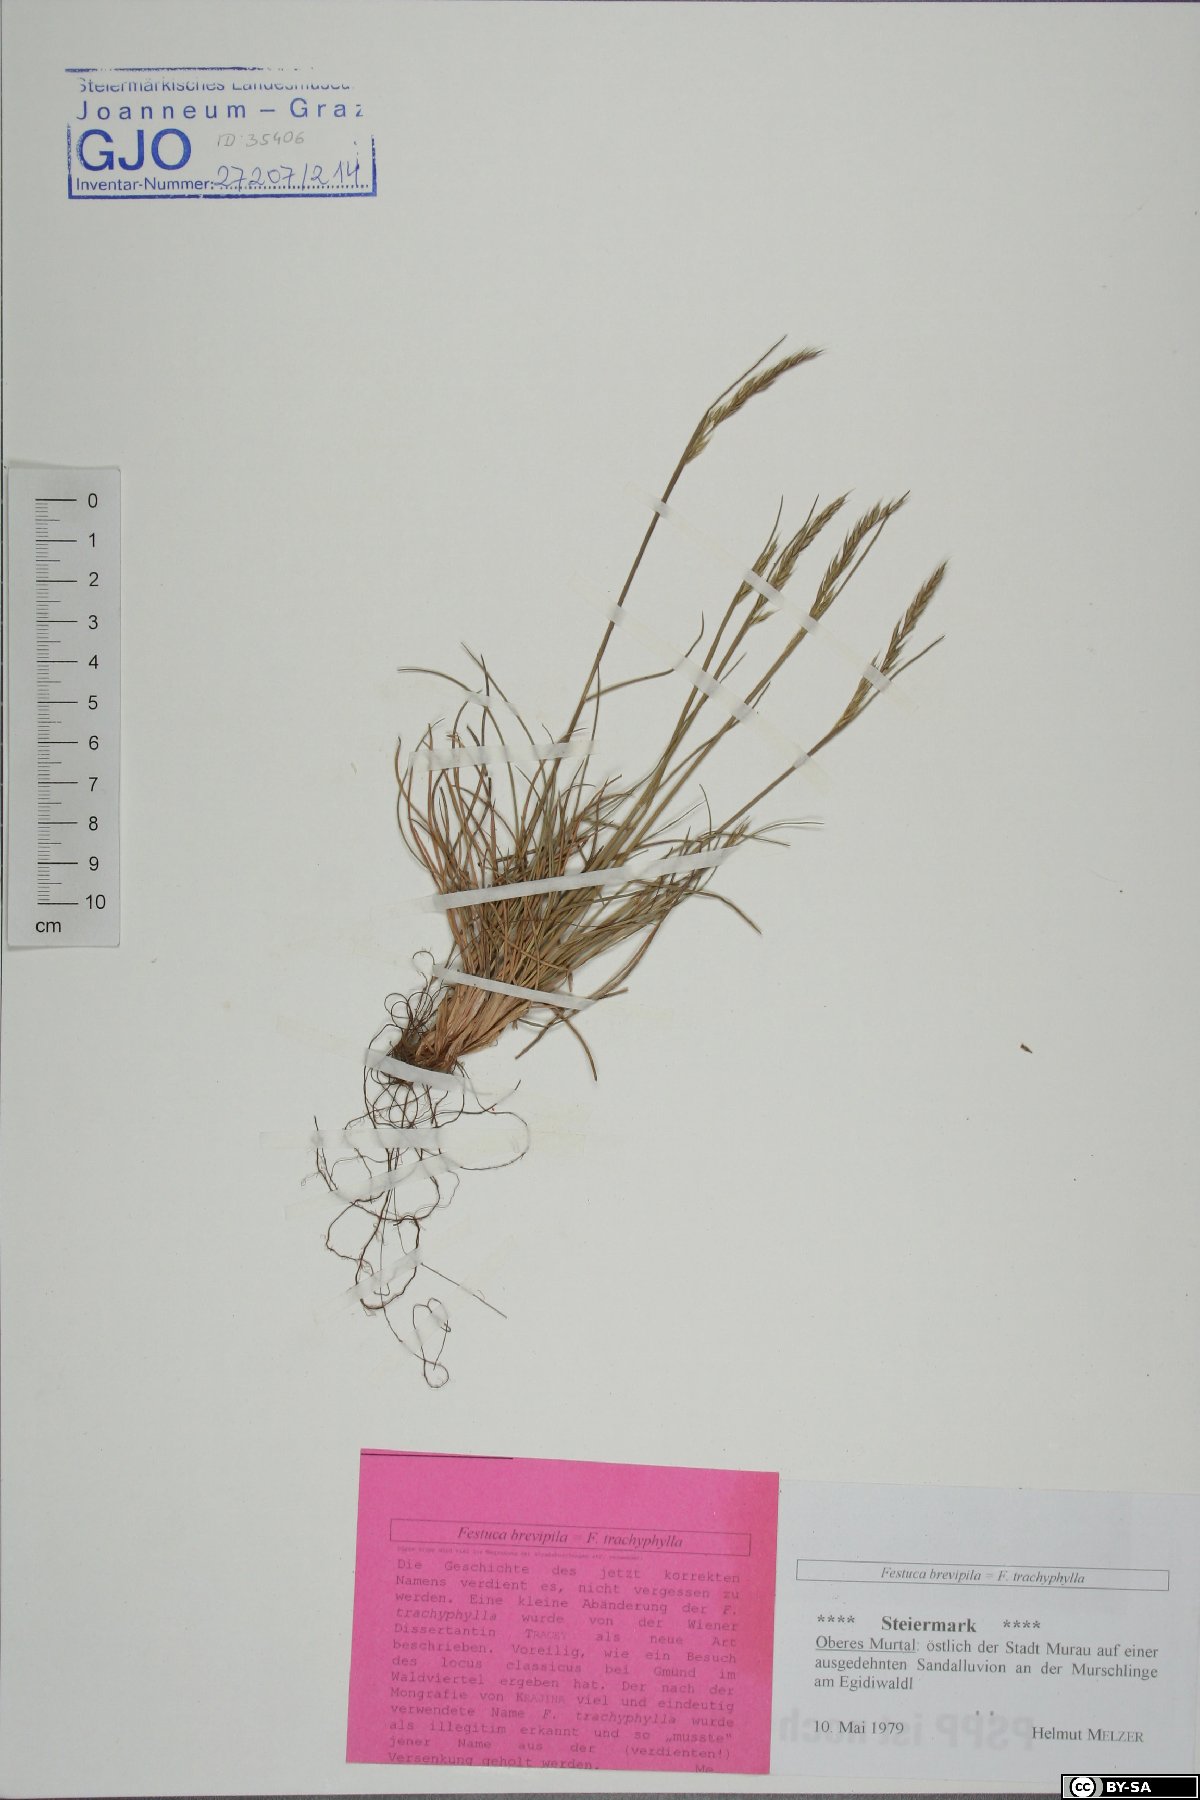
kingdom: Plantae
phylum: Tracheophyta
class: Liliopsida
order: Poales
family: Poaceae
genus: Festuca
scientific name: Festuca trachyphylla
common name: Hard fescue
